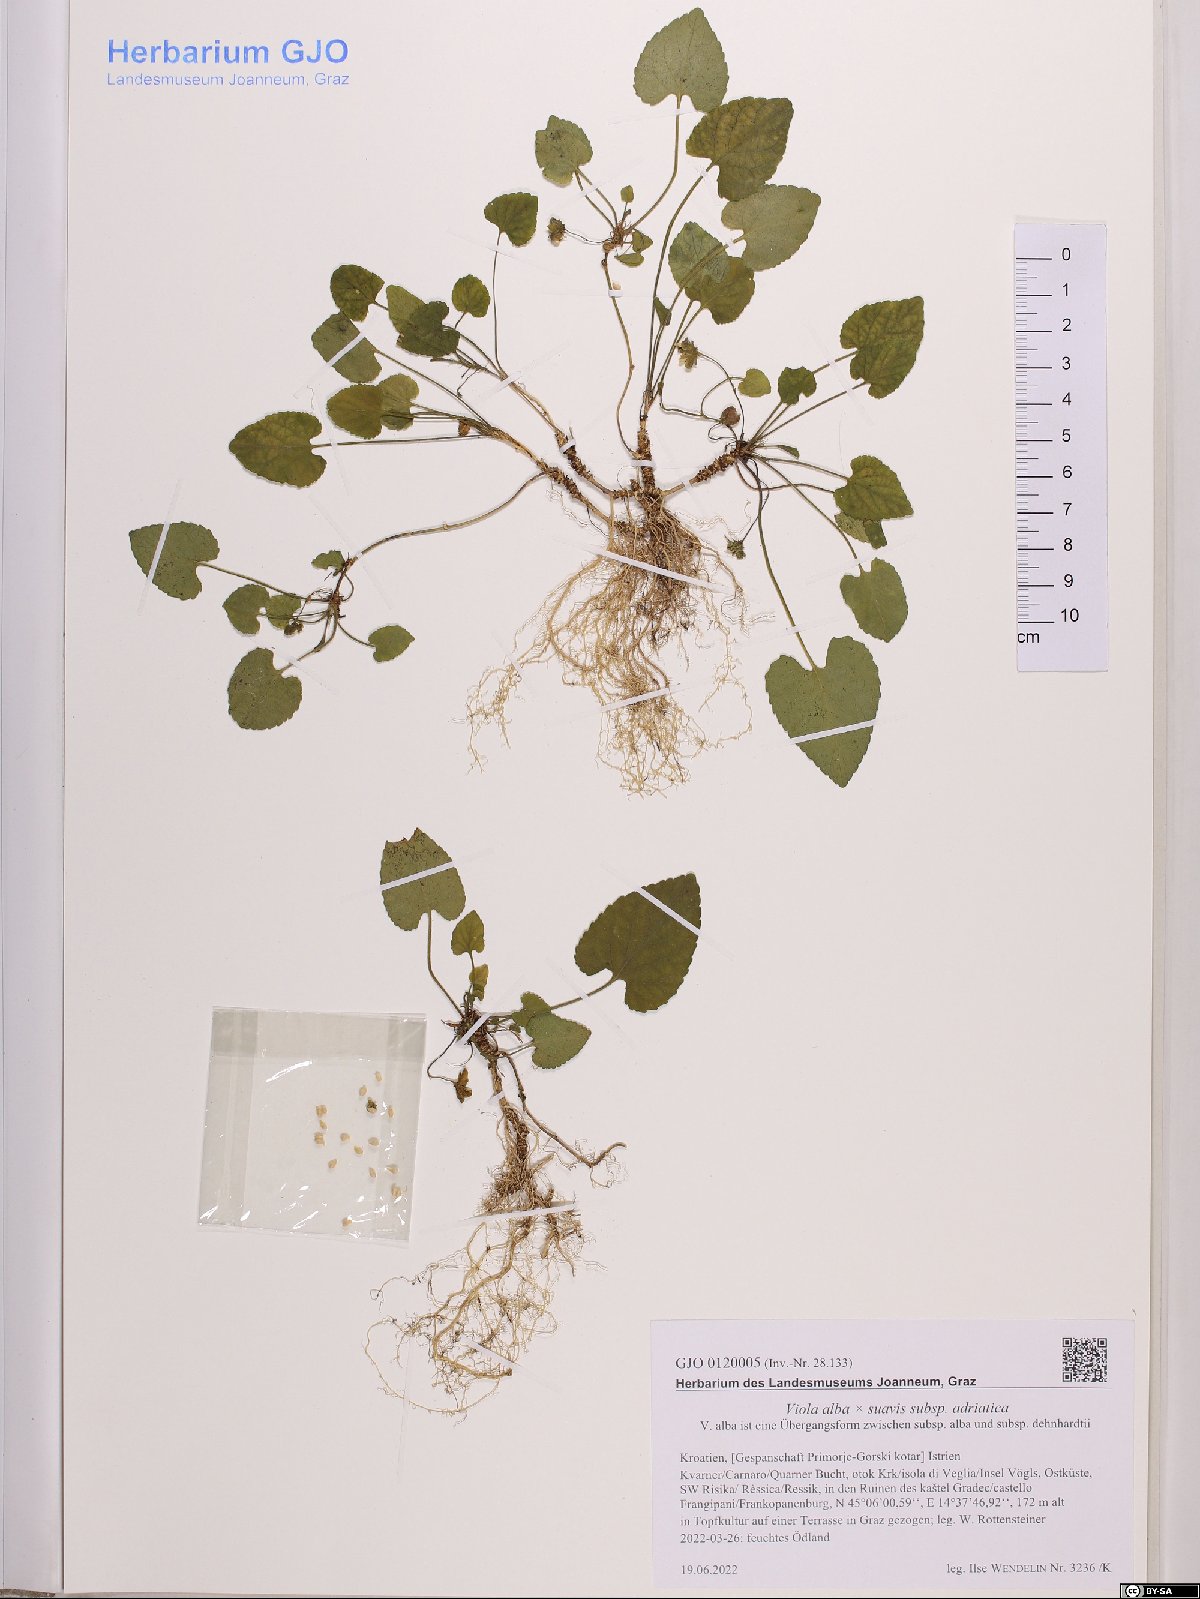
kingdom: Plantae
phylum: Tracheophyta
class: Magnoliopsida
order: Malpighiales
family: Violaceae
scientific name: Violaceae
